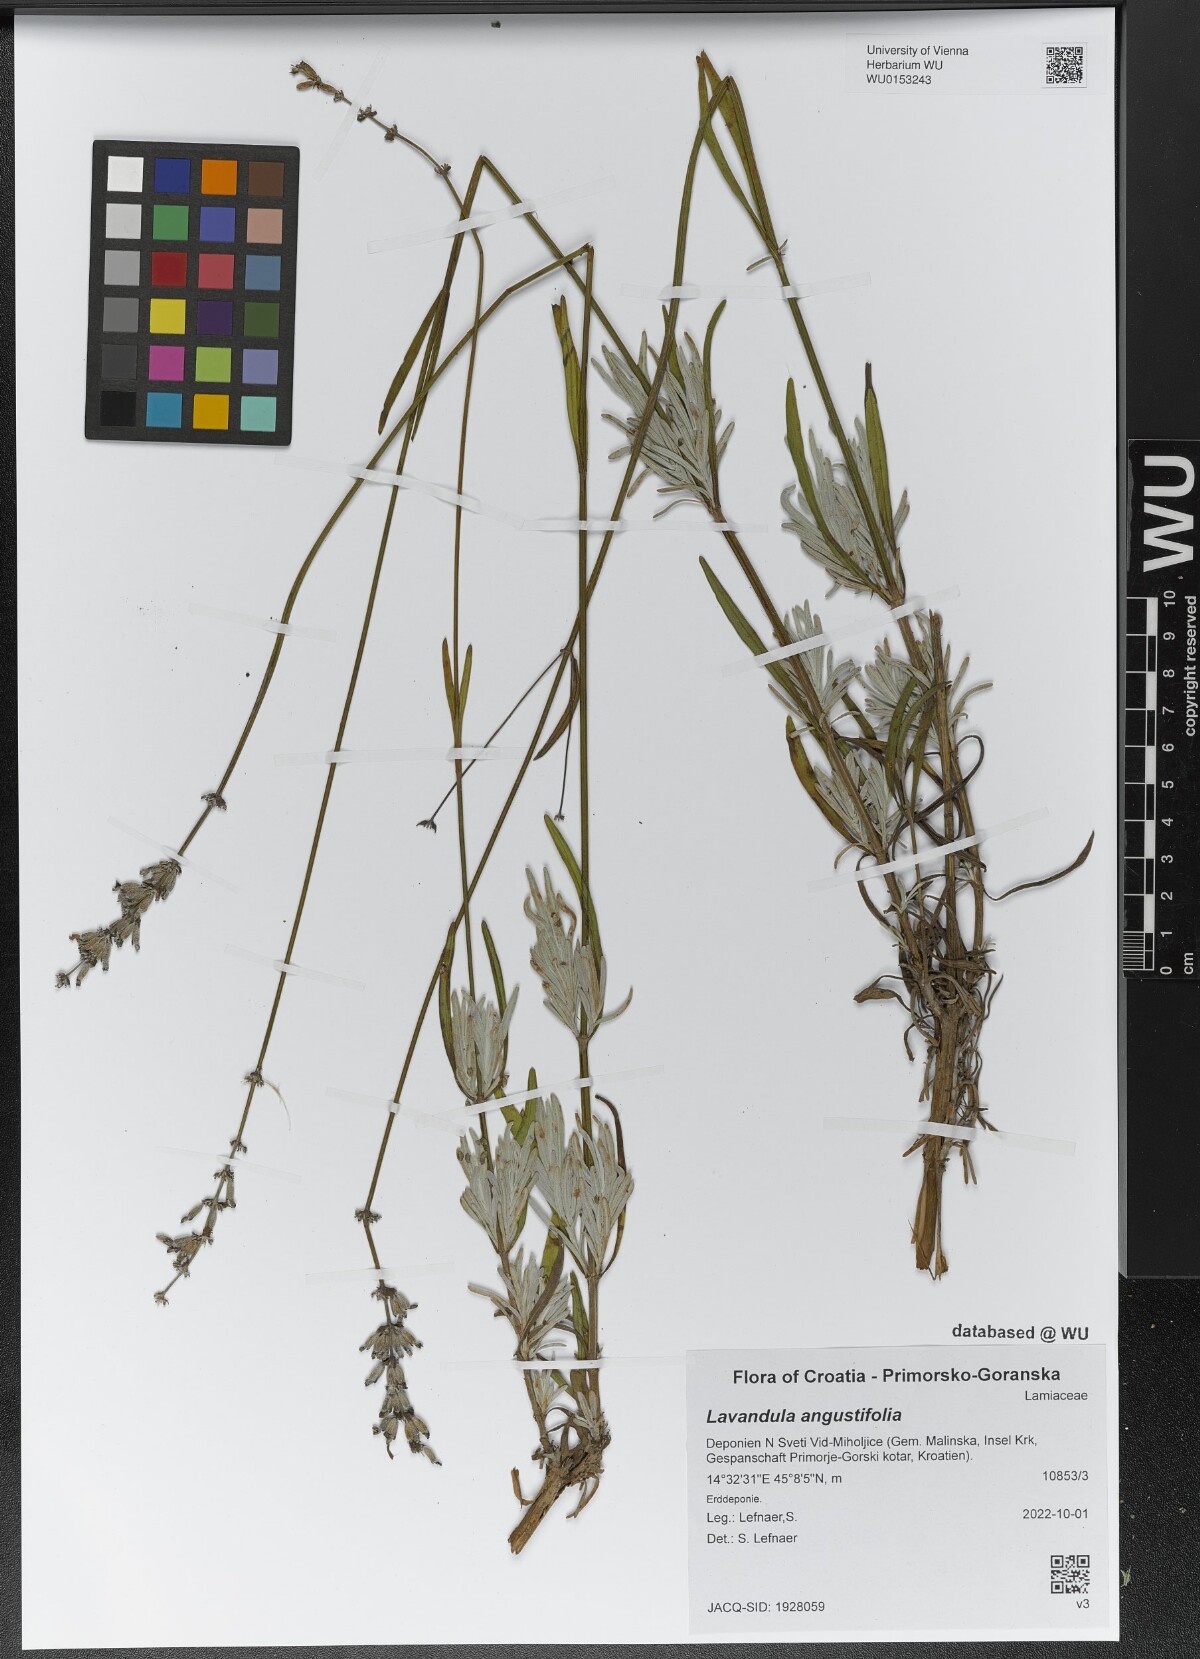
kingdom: Plantae
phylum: Tracheophyta
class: Magnoliopsida
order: Lamiales
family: Lamiaceae
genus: Lavandula
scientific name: Lavandula angustifolia
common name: Garden lavender
